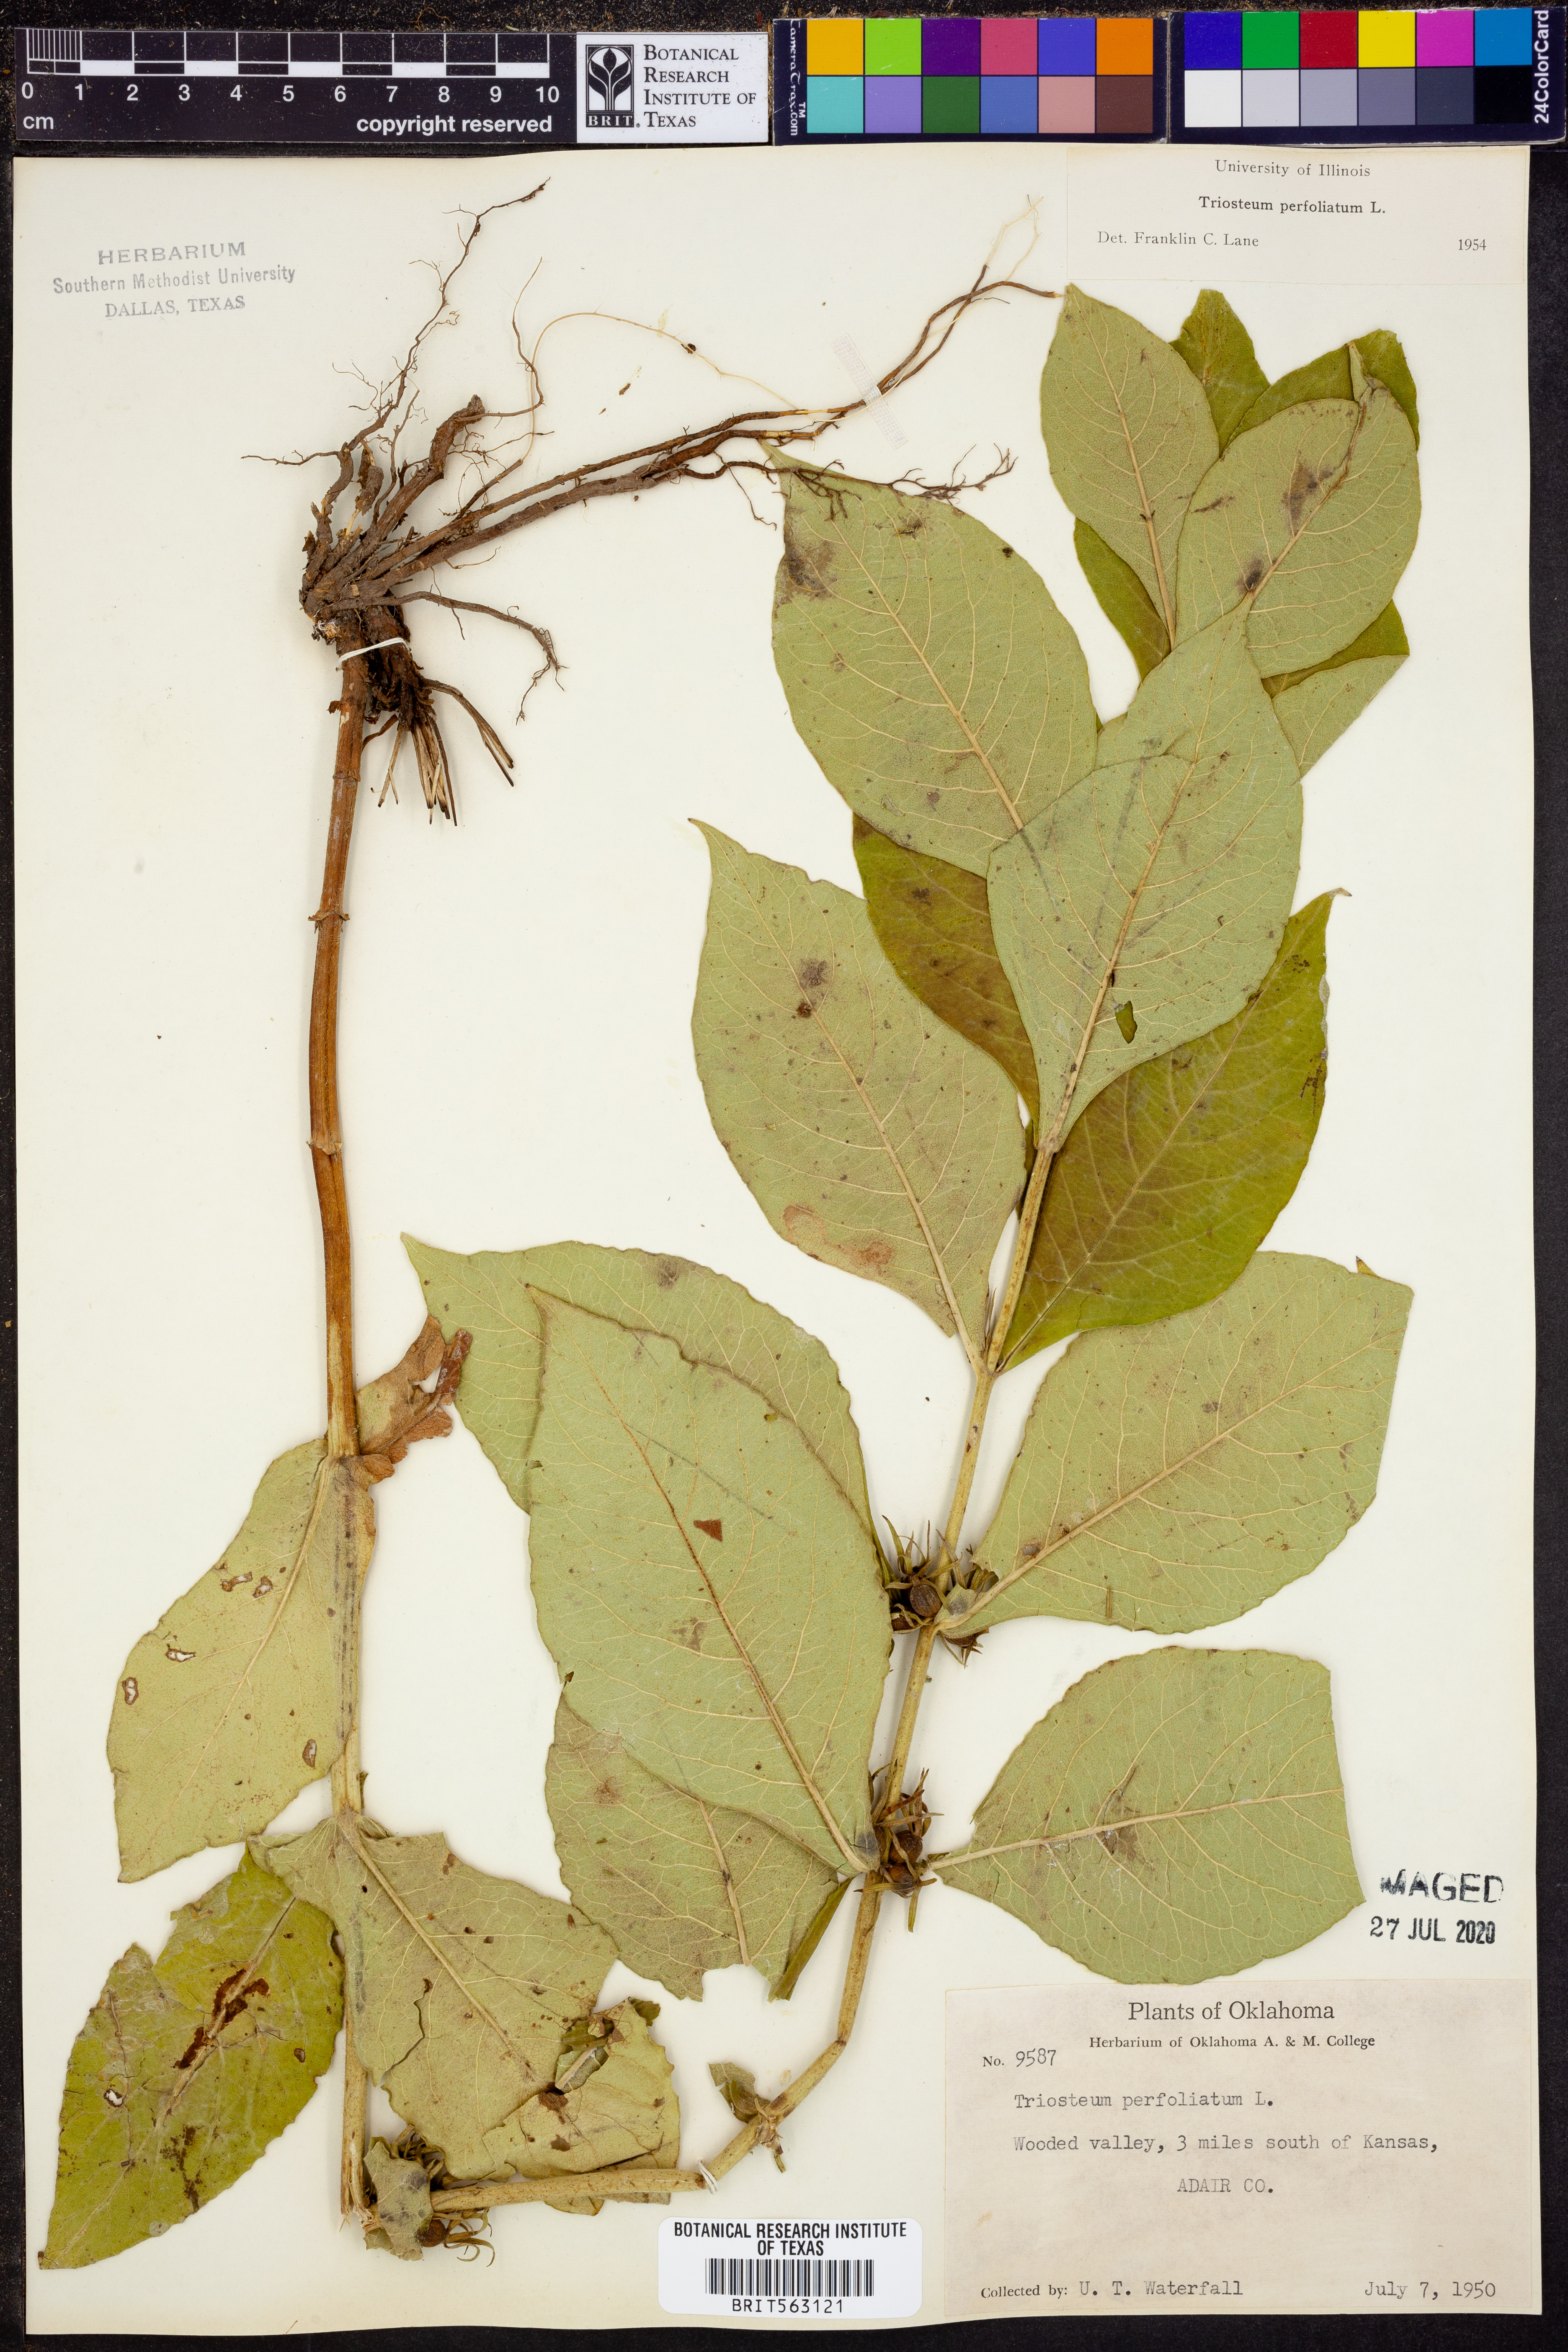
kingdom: Plantae
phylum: Tracheophyta
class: Magnoliopsida
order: Dipsacales
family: Caprifoliaceae
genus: Triosteum
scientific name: Triosteum perfoliatum
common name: Common horse-gentian
